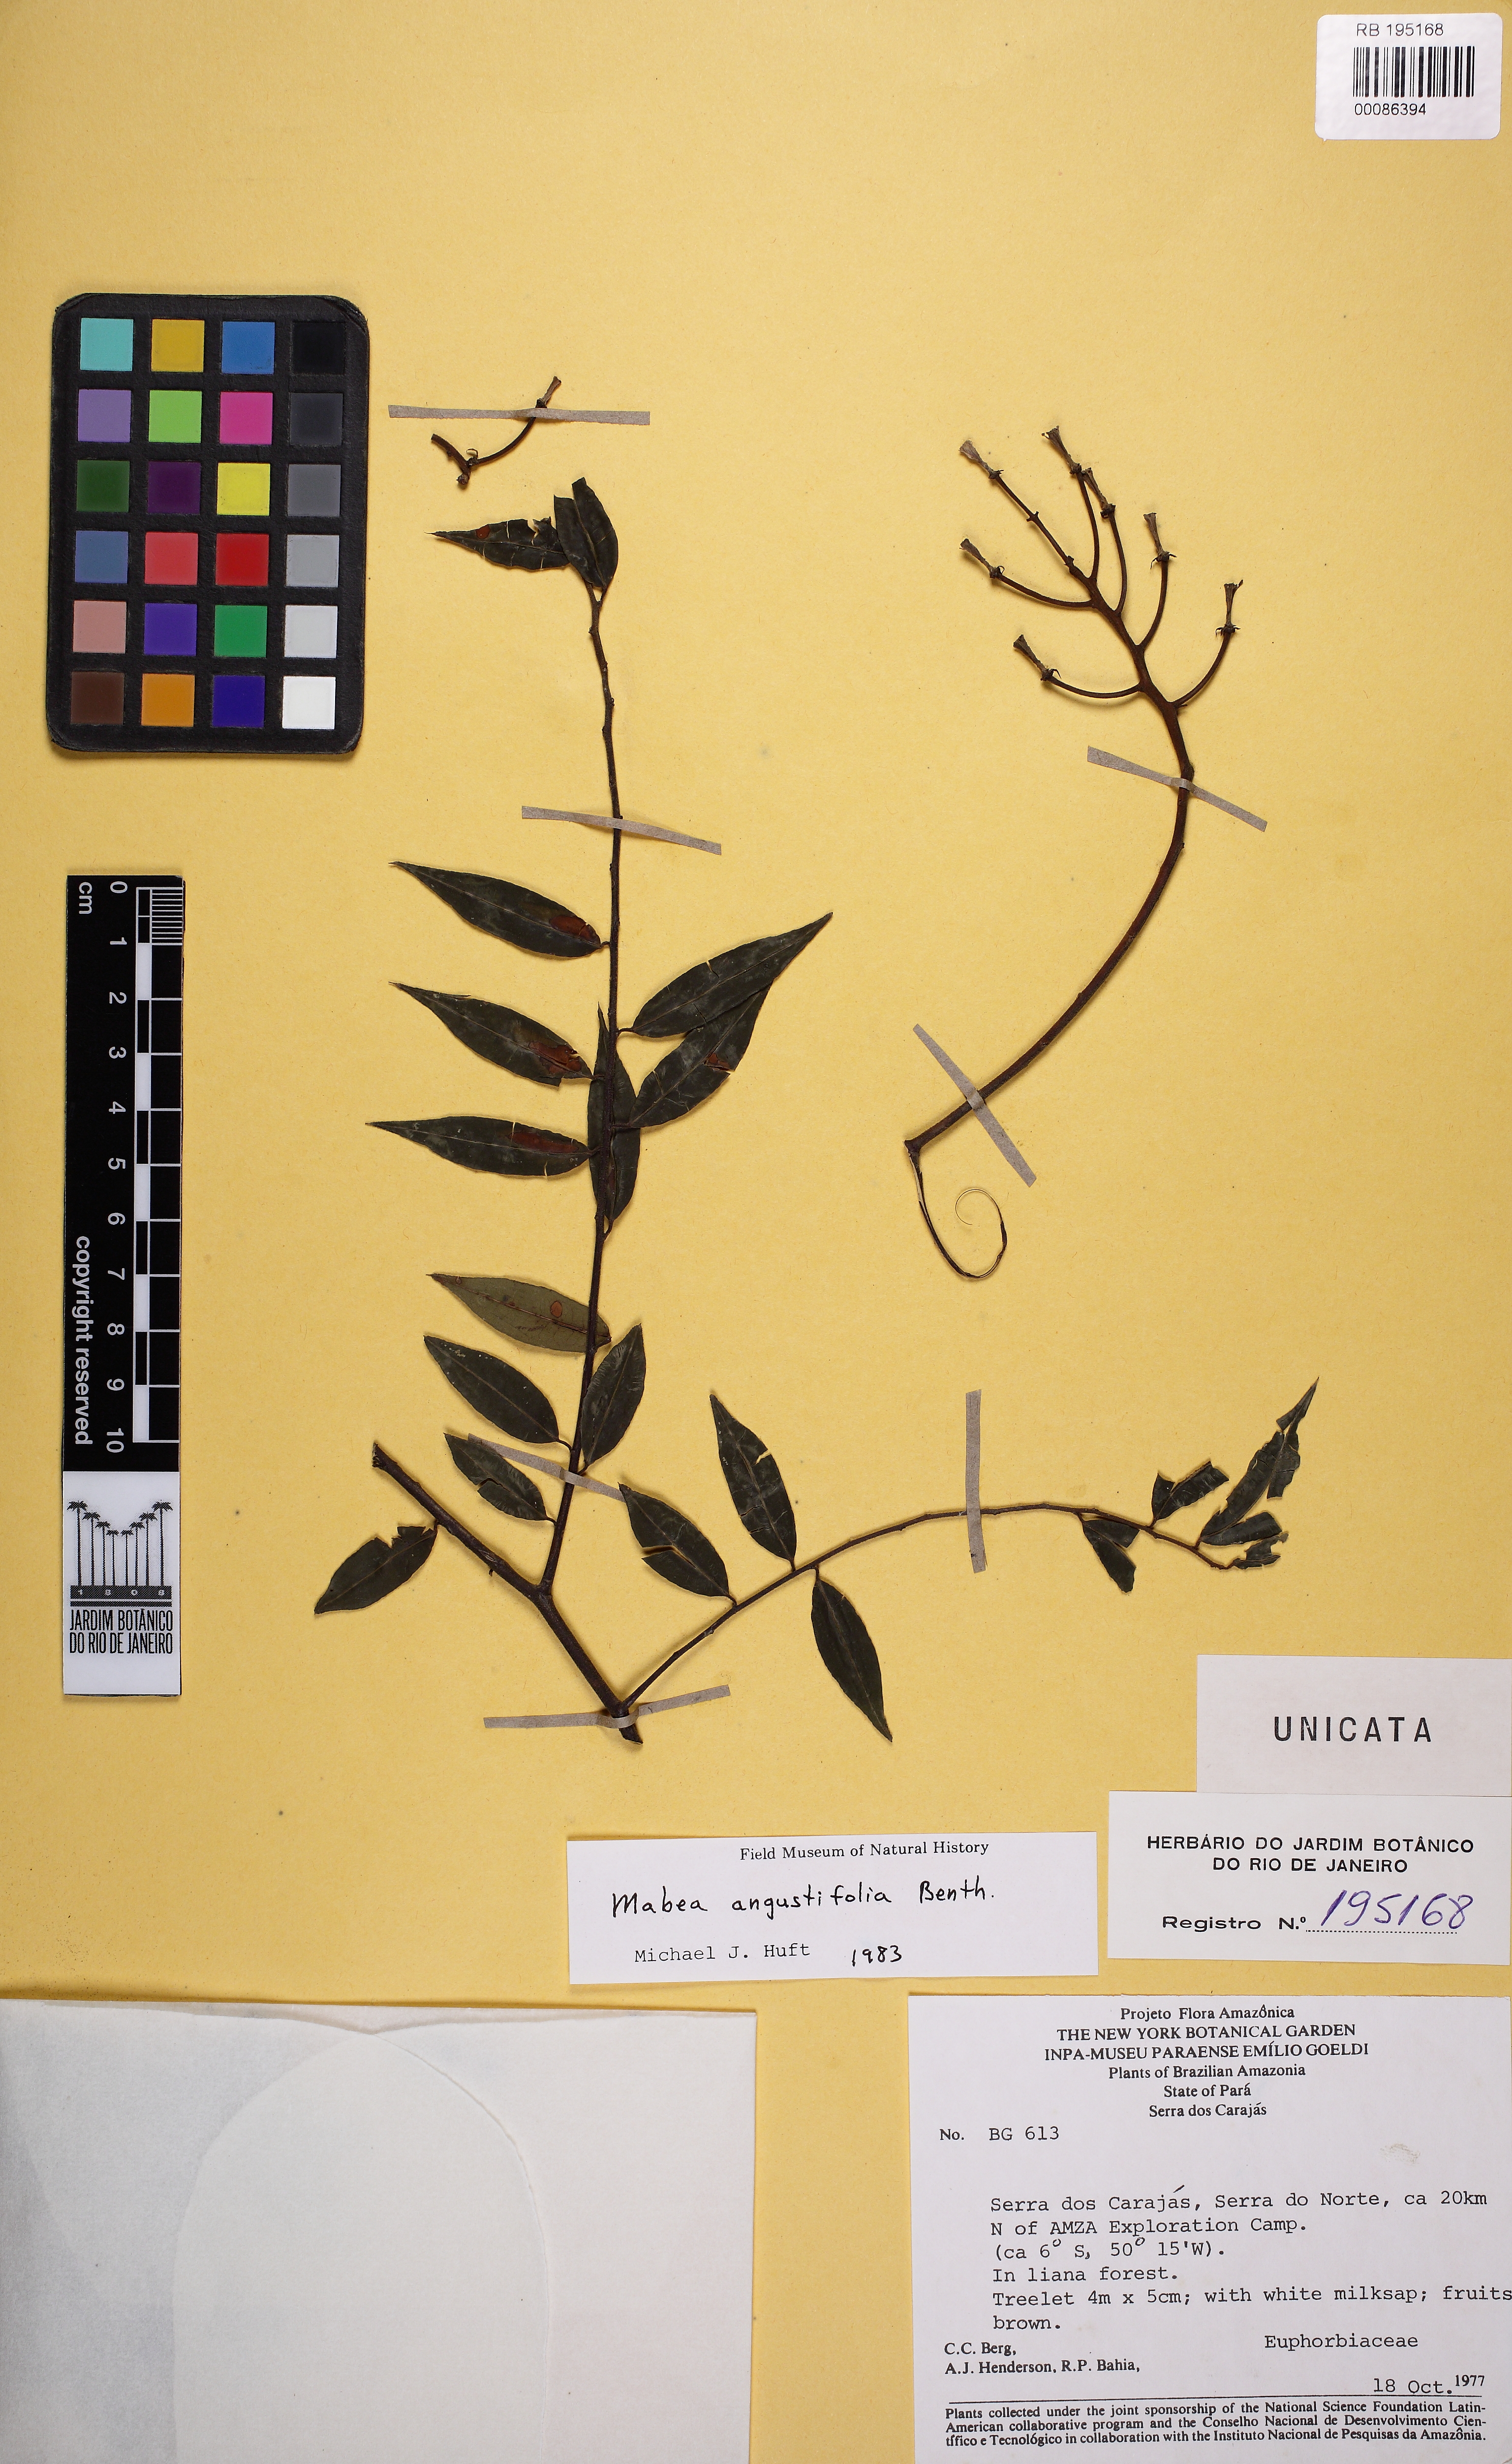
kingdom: Plantae
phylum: Tracheophyta
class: Magnoliopsida
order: Malpighiales
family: Euphorbiaceae
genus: Mabea
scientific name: Mabea angustifolia
